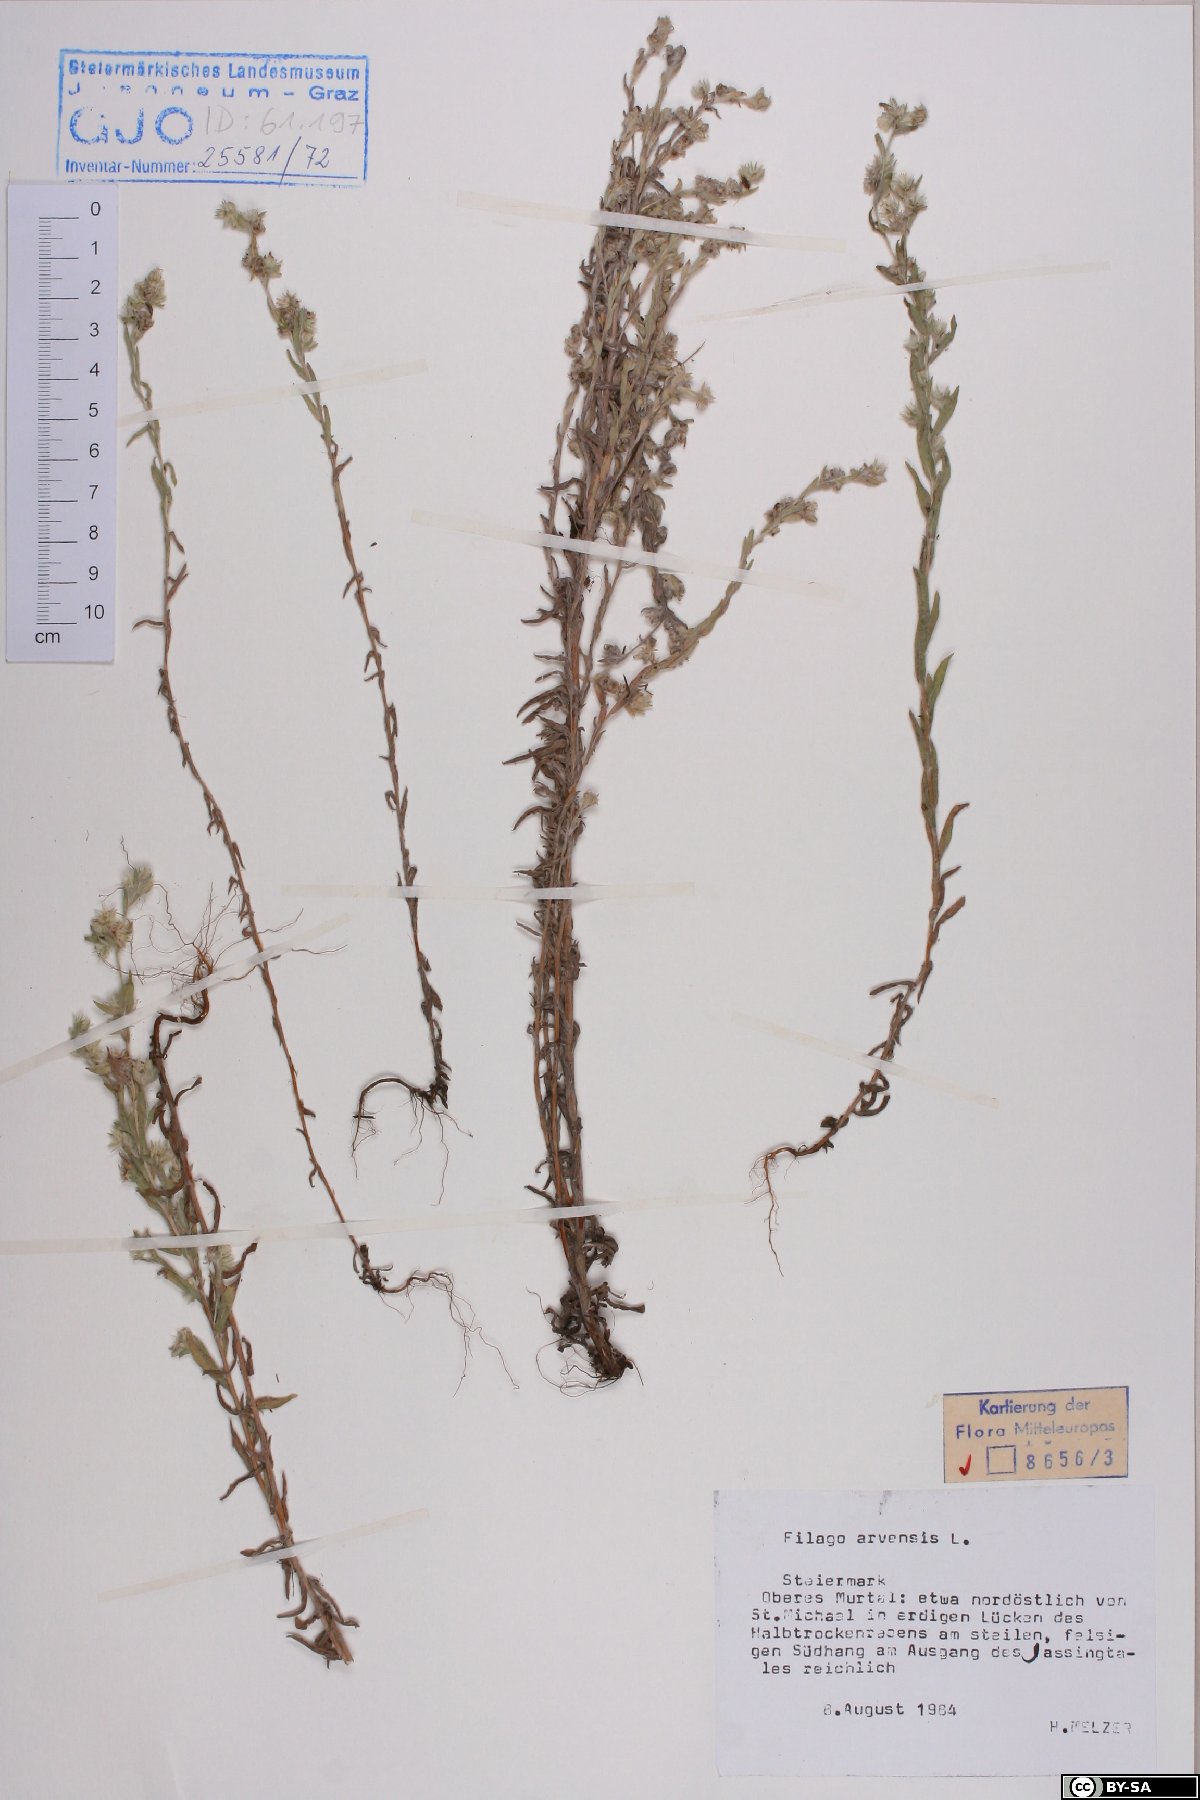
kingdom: Plantae
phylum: Tracheophyta
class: Magnoliopsida
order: Asterales
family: Asteraceae
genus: Filago
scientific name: Filago arvensis
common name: Field cudweed
